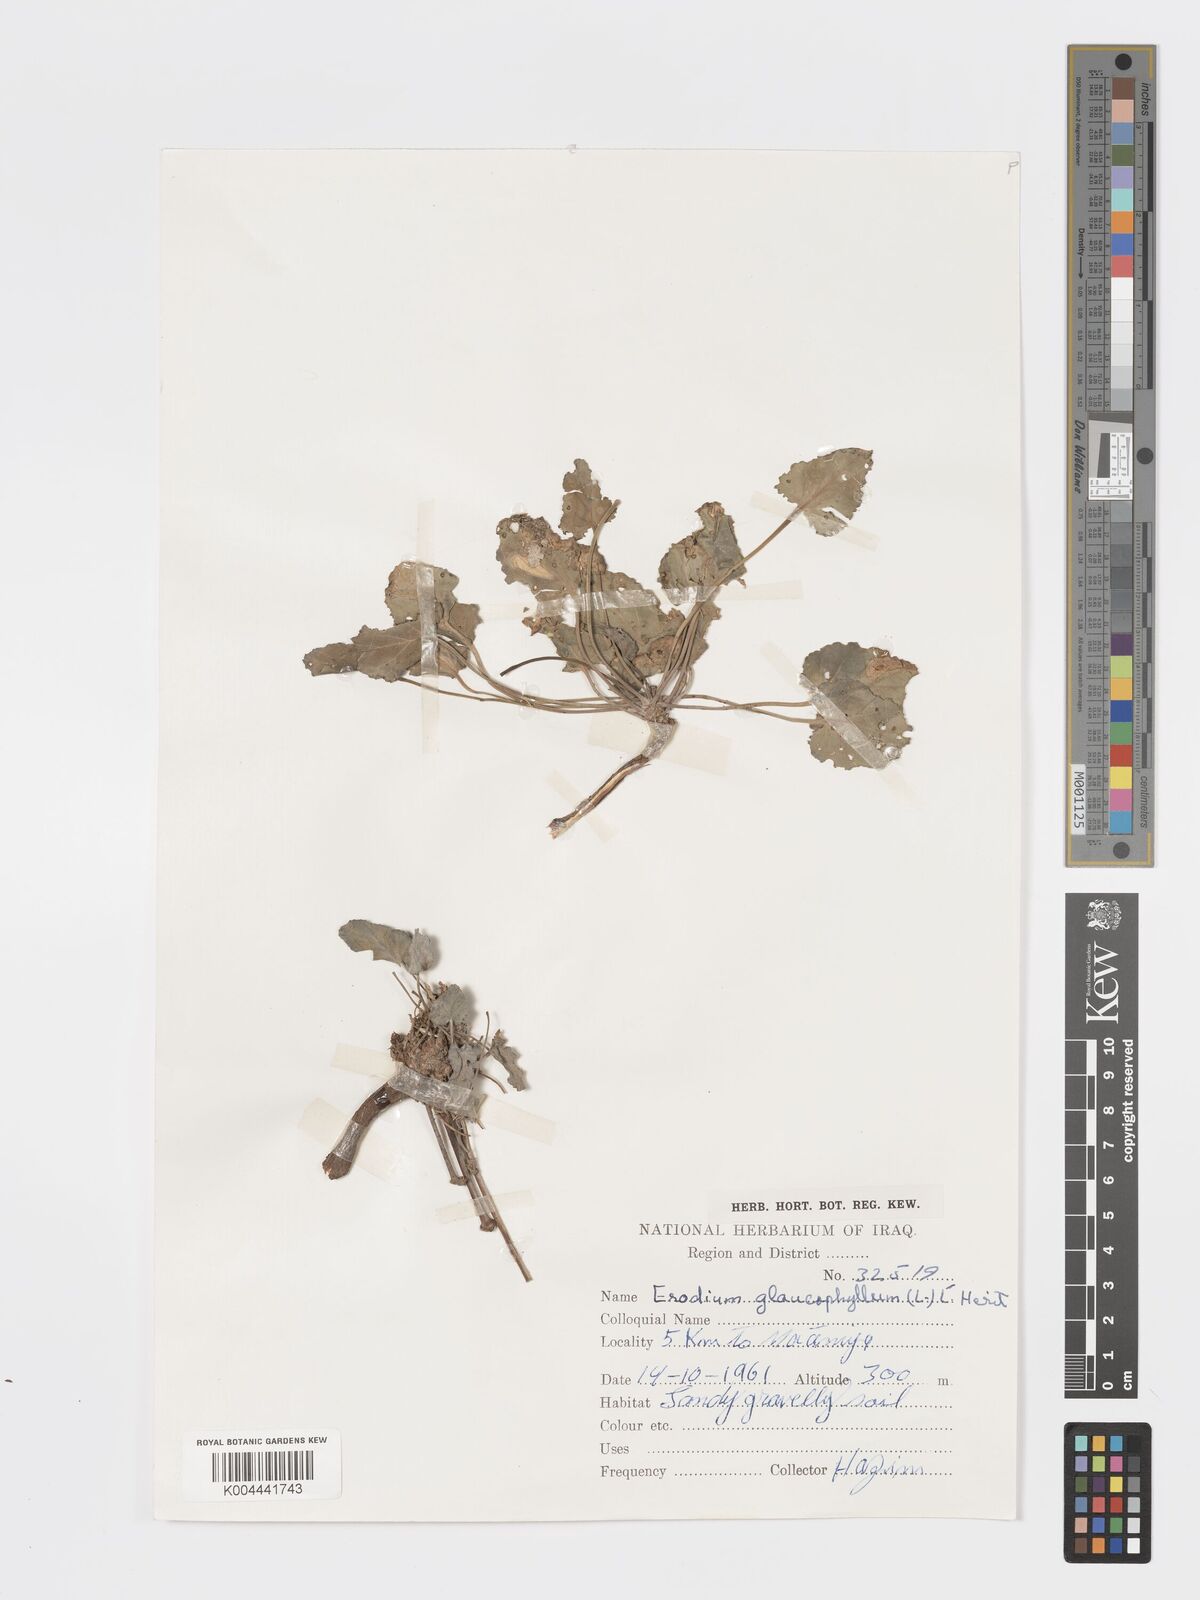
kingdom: Plantae
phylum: Tracheophyta
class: Magnoliopsida
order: Geraniales
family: Geraniaceae
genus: Erodium
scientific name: Erodium glaucophyllum
